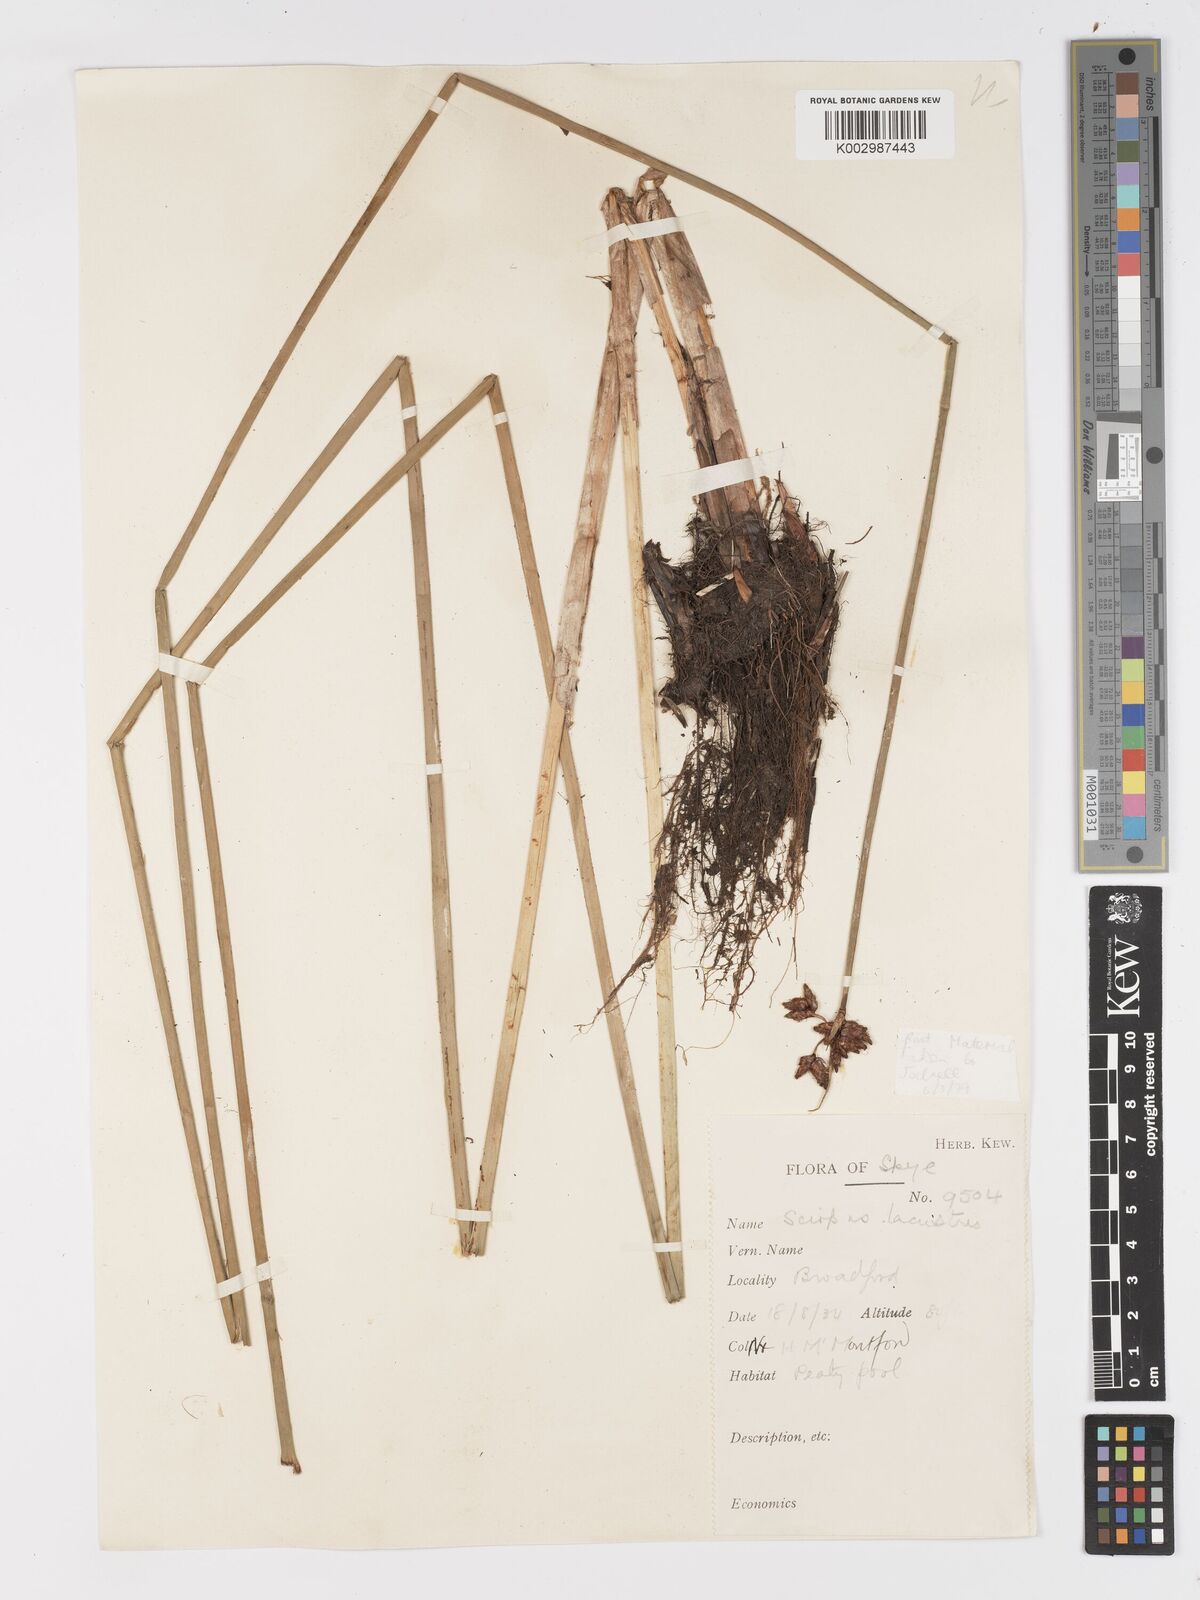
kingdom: Plantae
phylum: Tracheophyta
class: Liliopsida
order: Poales
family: Cyperaceae
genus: Schoenoplectus
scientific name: Schoenoplectus lacustris
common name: Common club-rush
